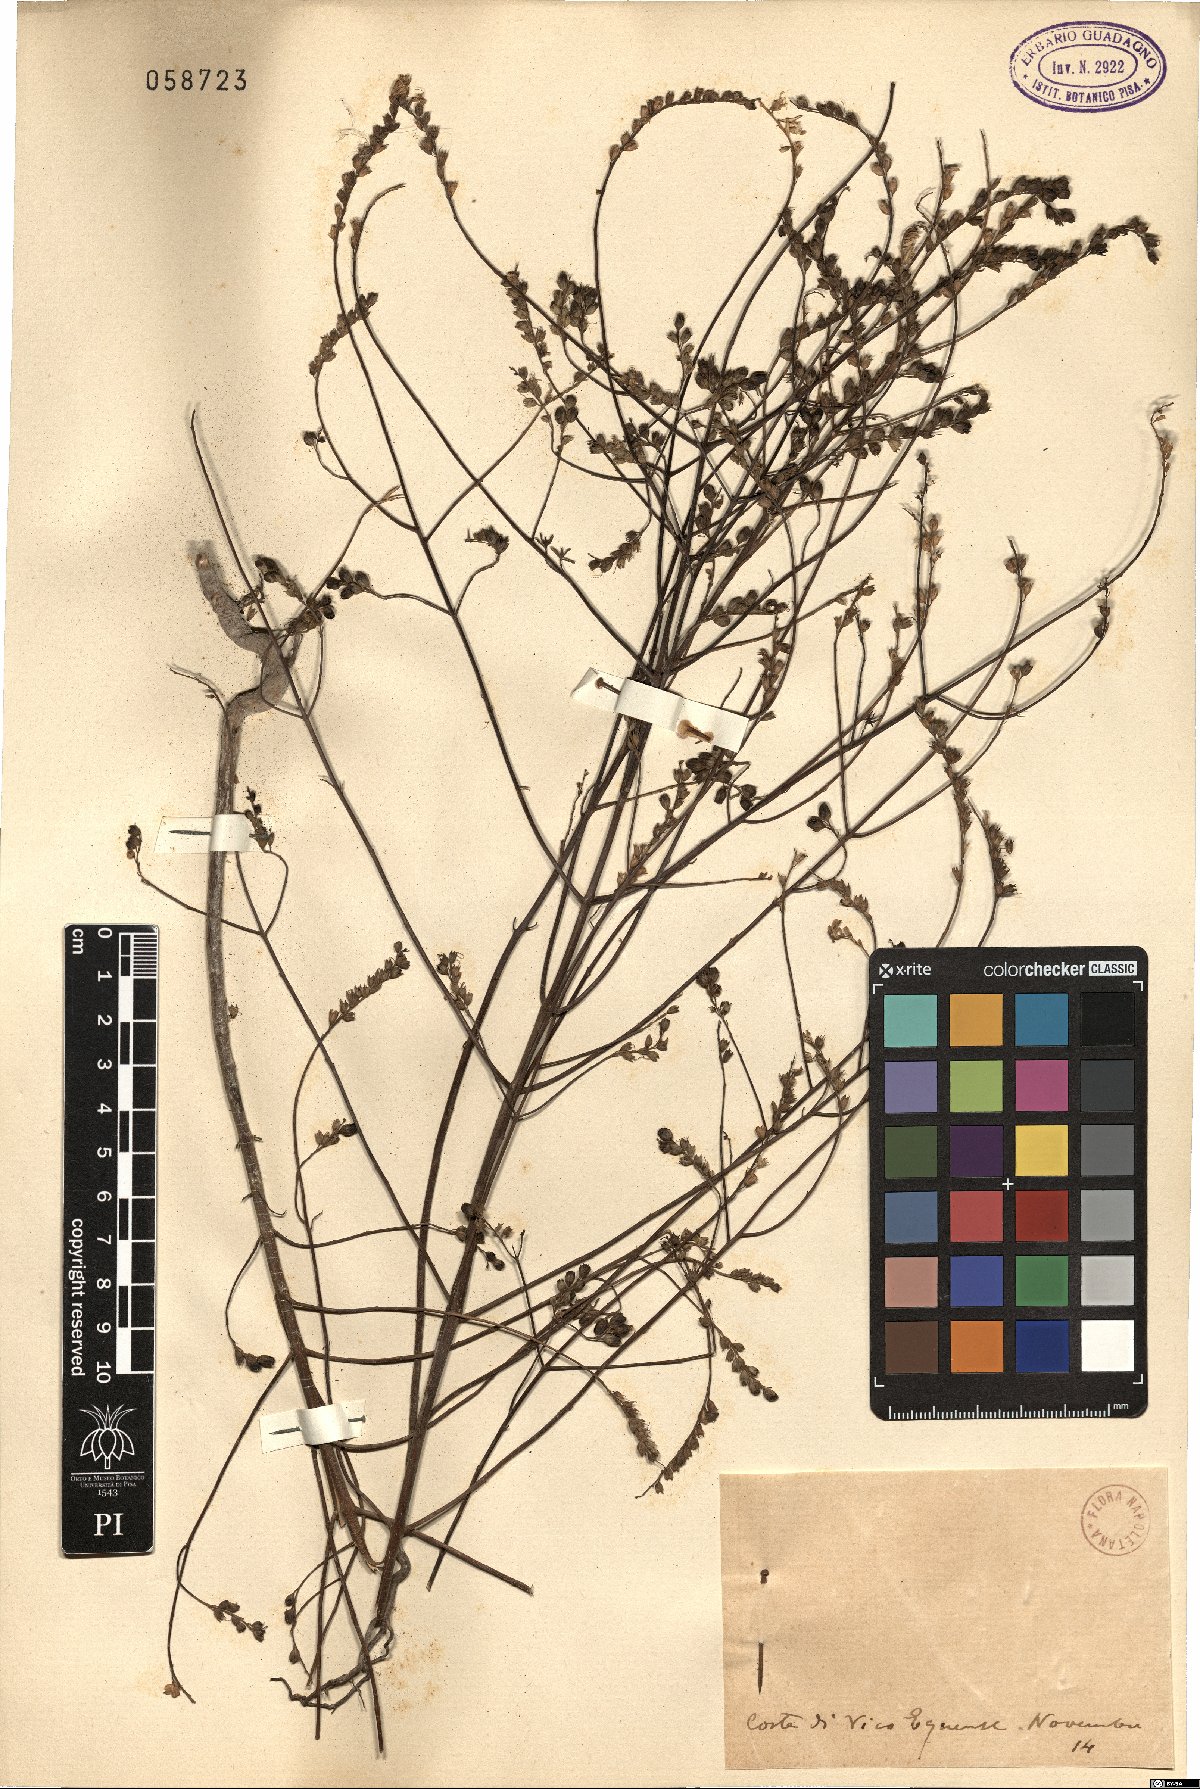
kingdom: Plantae
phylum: Tracheophyta
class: Magnoliopsida
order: Lamiales
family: Orobanchaceae
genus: Bartsia
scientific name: Bartsia
